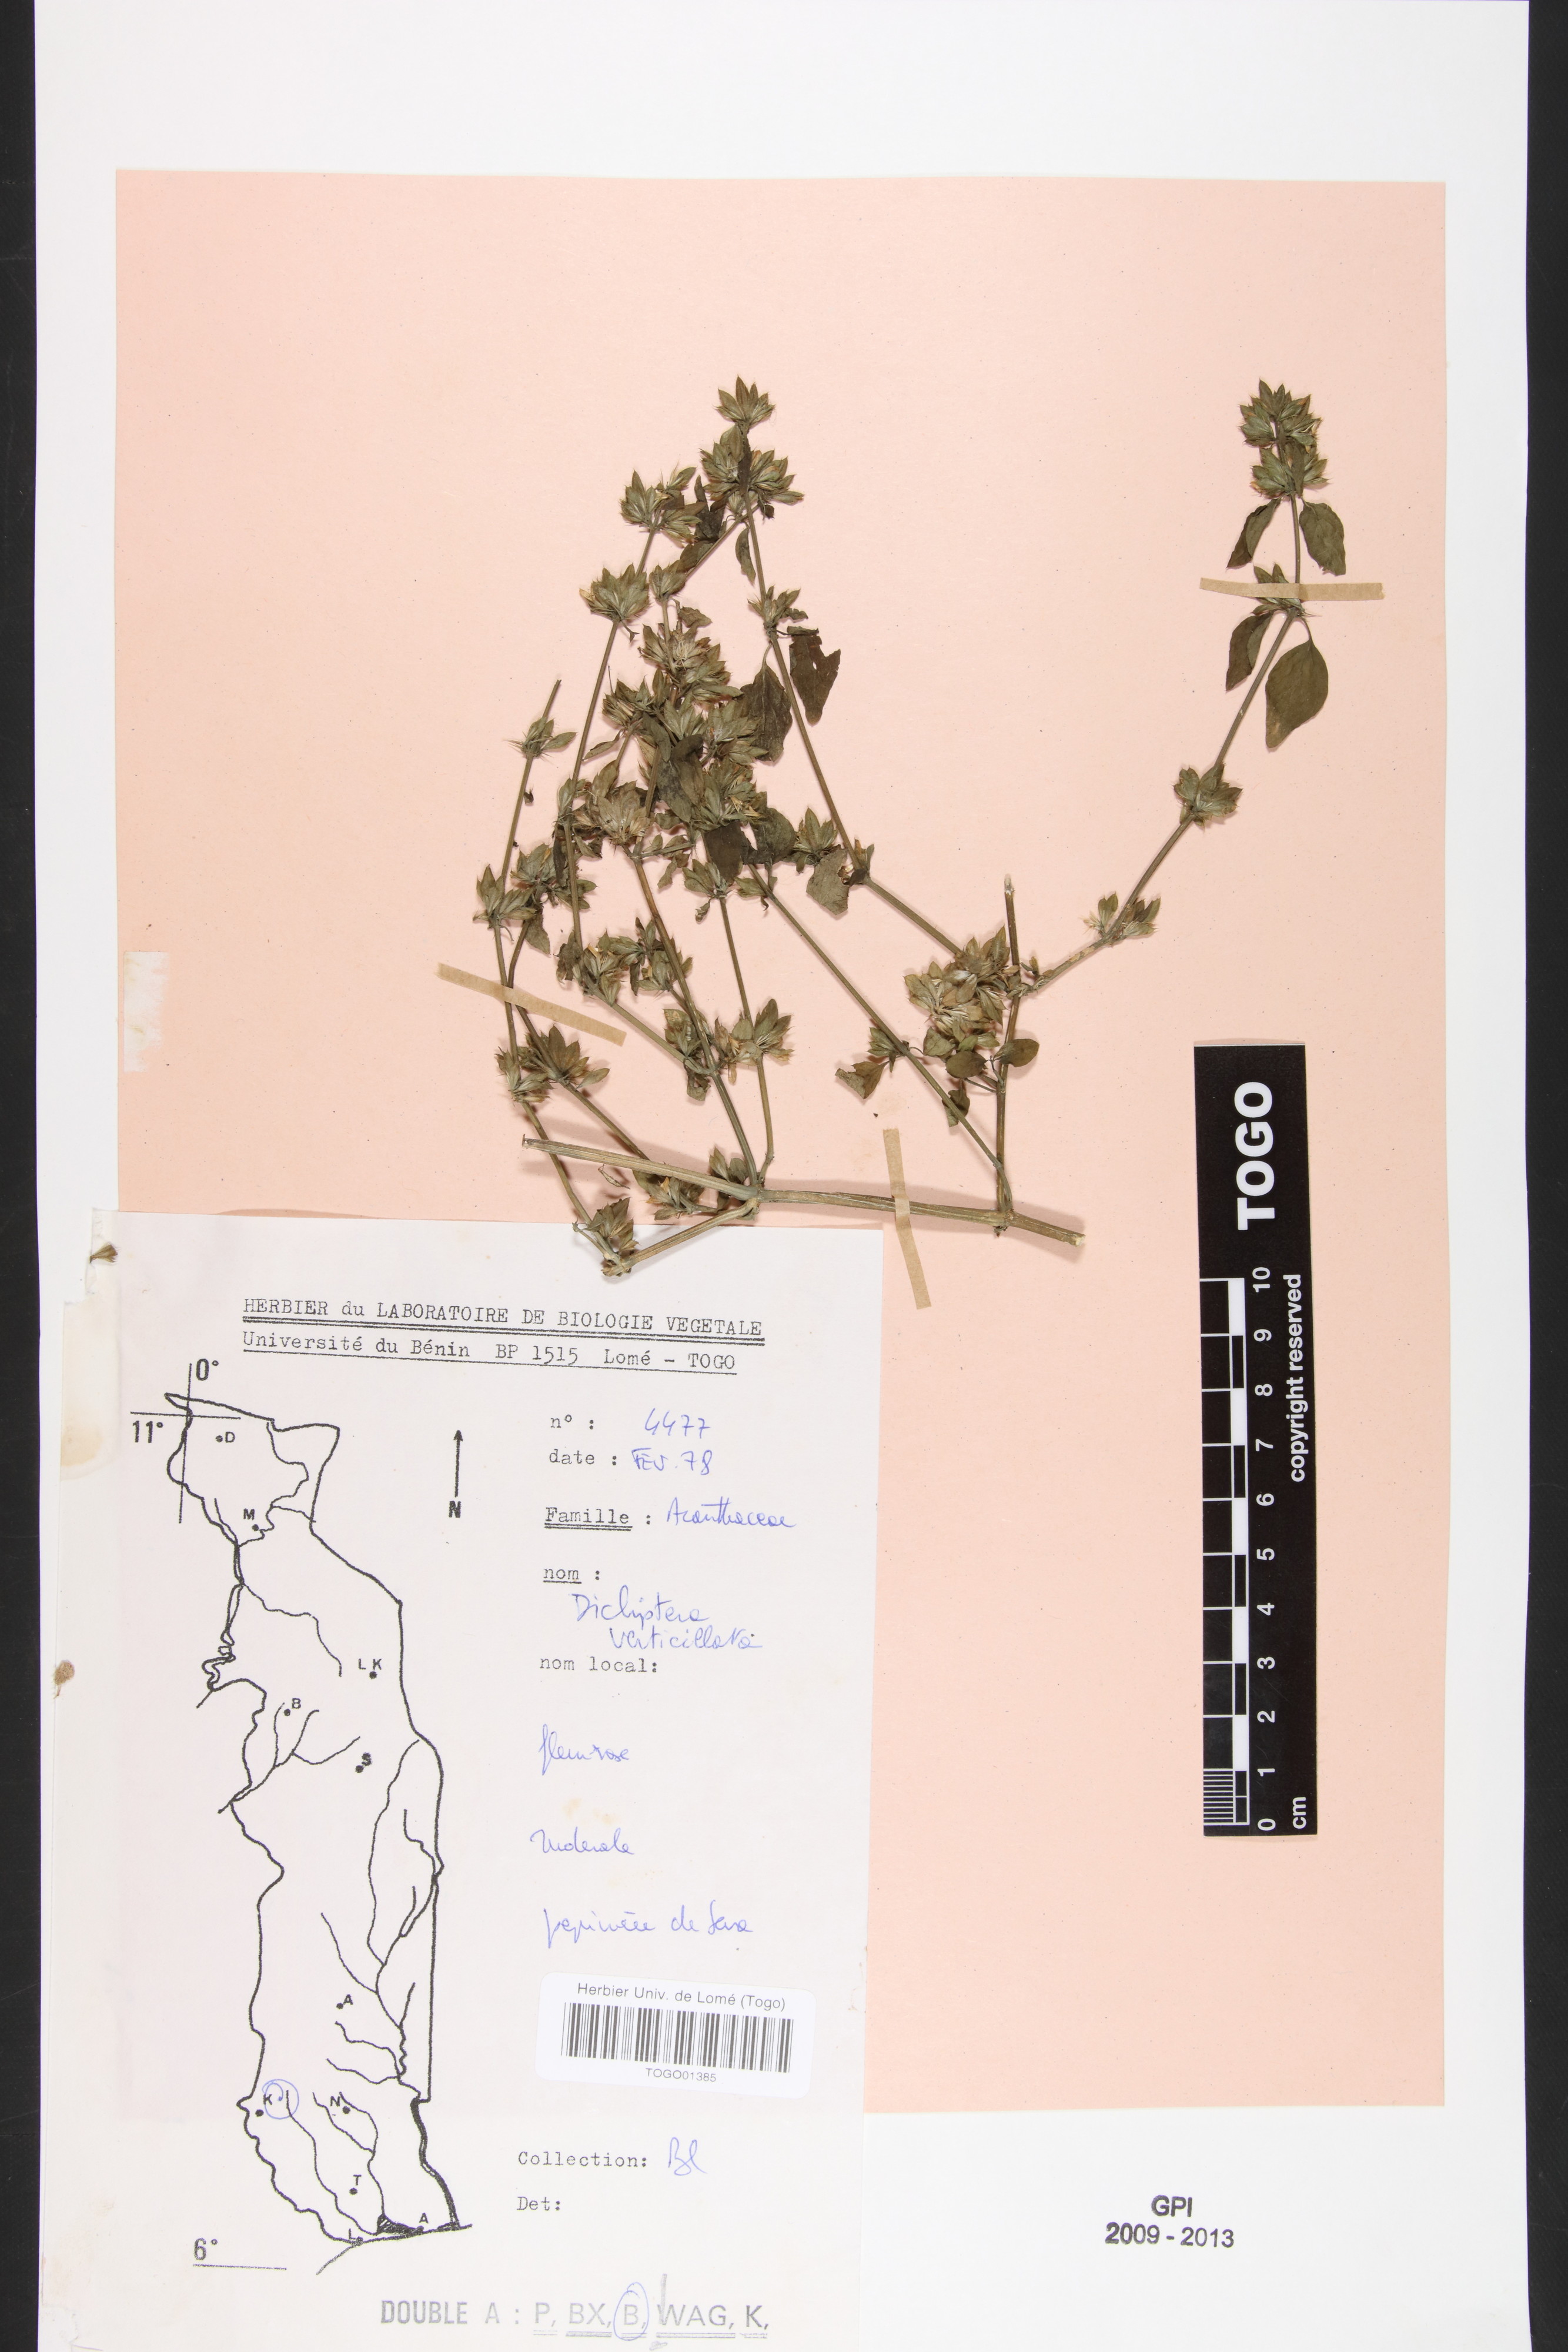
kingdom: Plantae
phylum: Tracheophyta
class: Magnoliopsida
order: Lamiales
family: Acanthaceae
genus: Dicliptera
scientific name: Dicliptera verticillata
